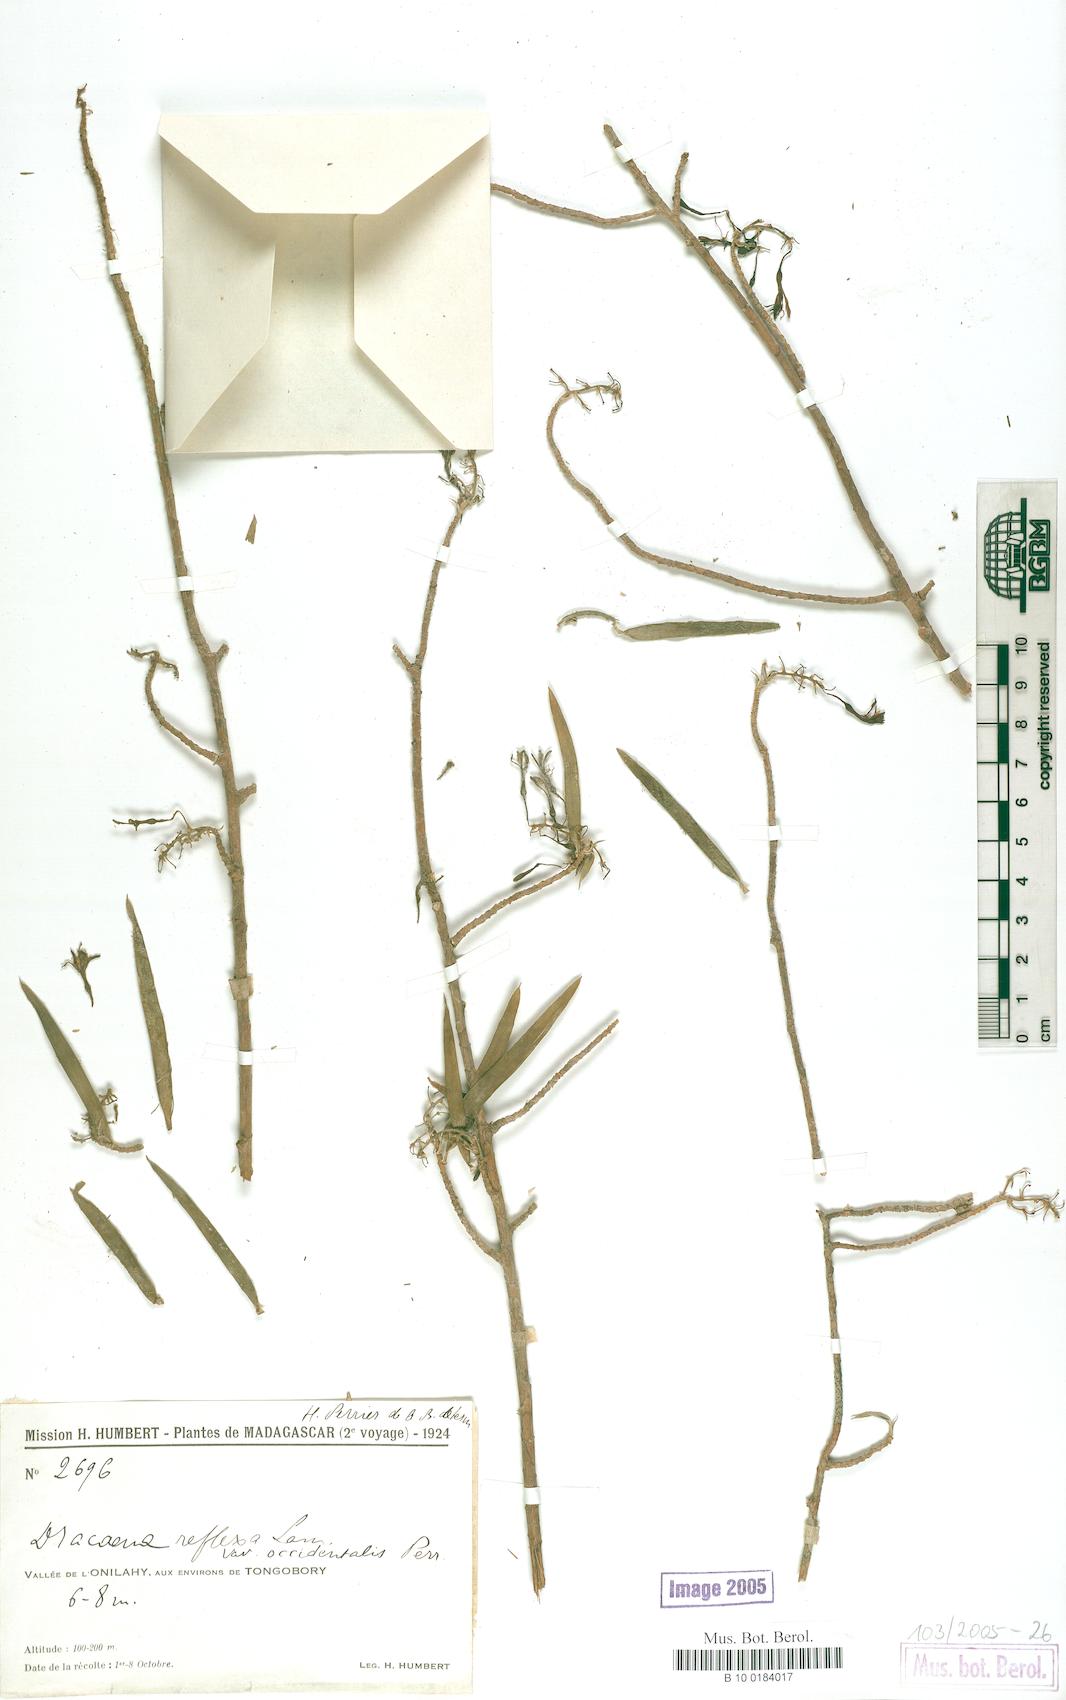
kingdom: Plantae
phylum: Tracheophyta
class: Liliopsida
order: Asparagales
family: Asparagaceae
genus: Dracaena
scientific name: Dracaena reflexa
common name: Song-of-india
